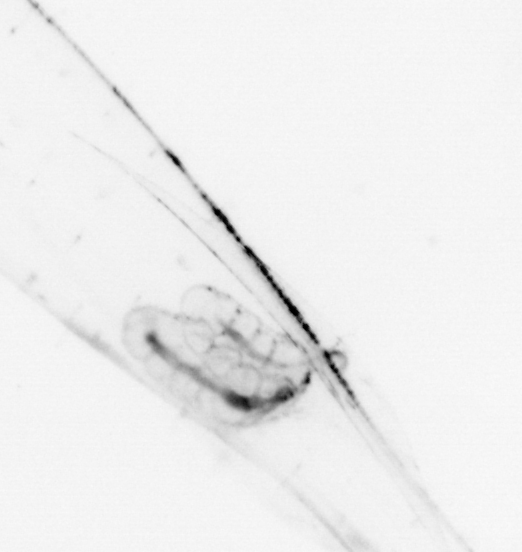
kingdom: Animalia
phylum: Chaetognatha
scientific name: Chaetognatha
